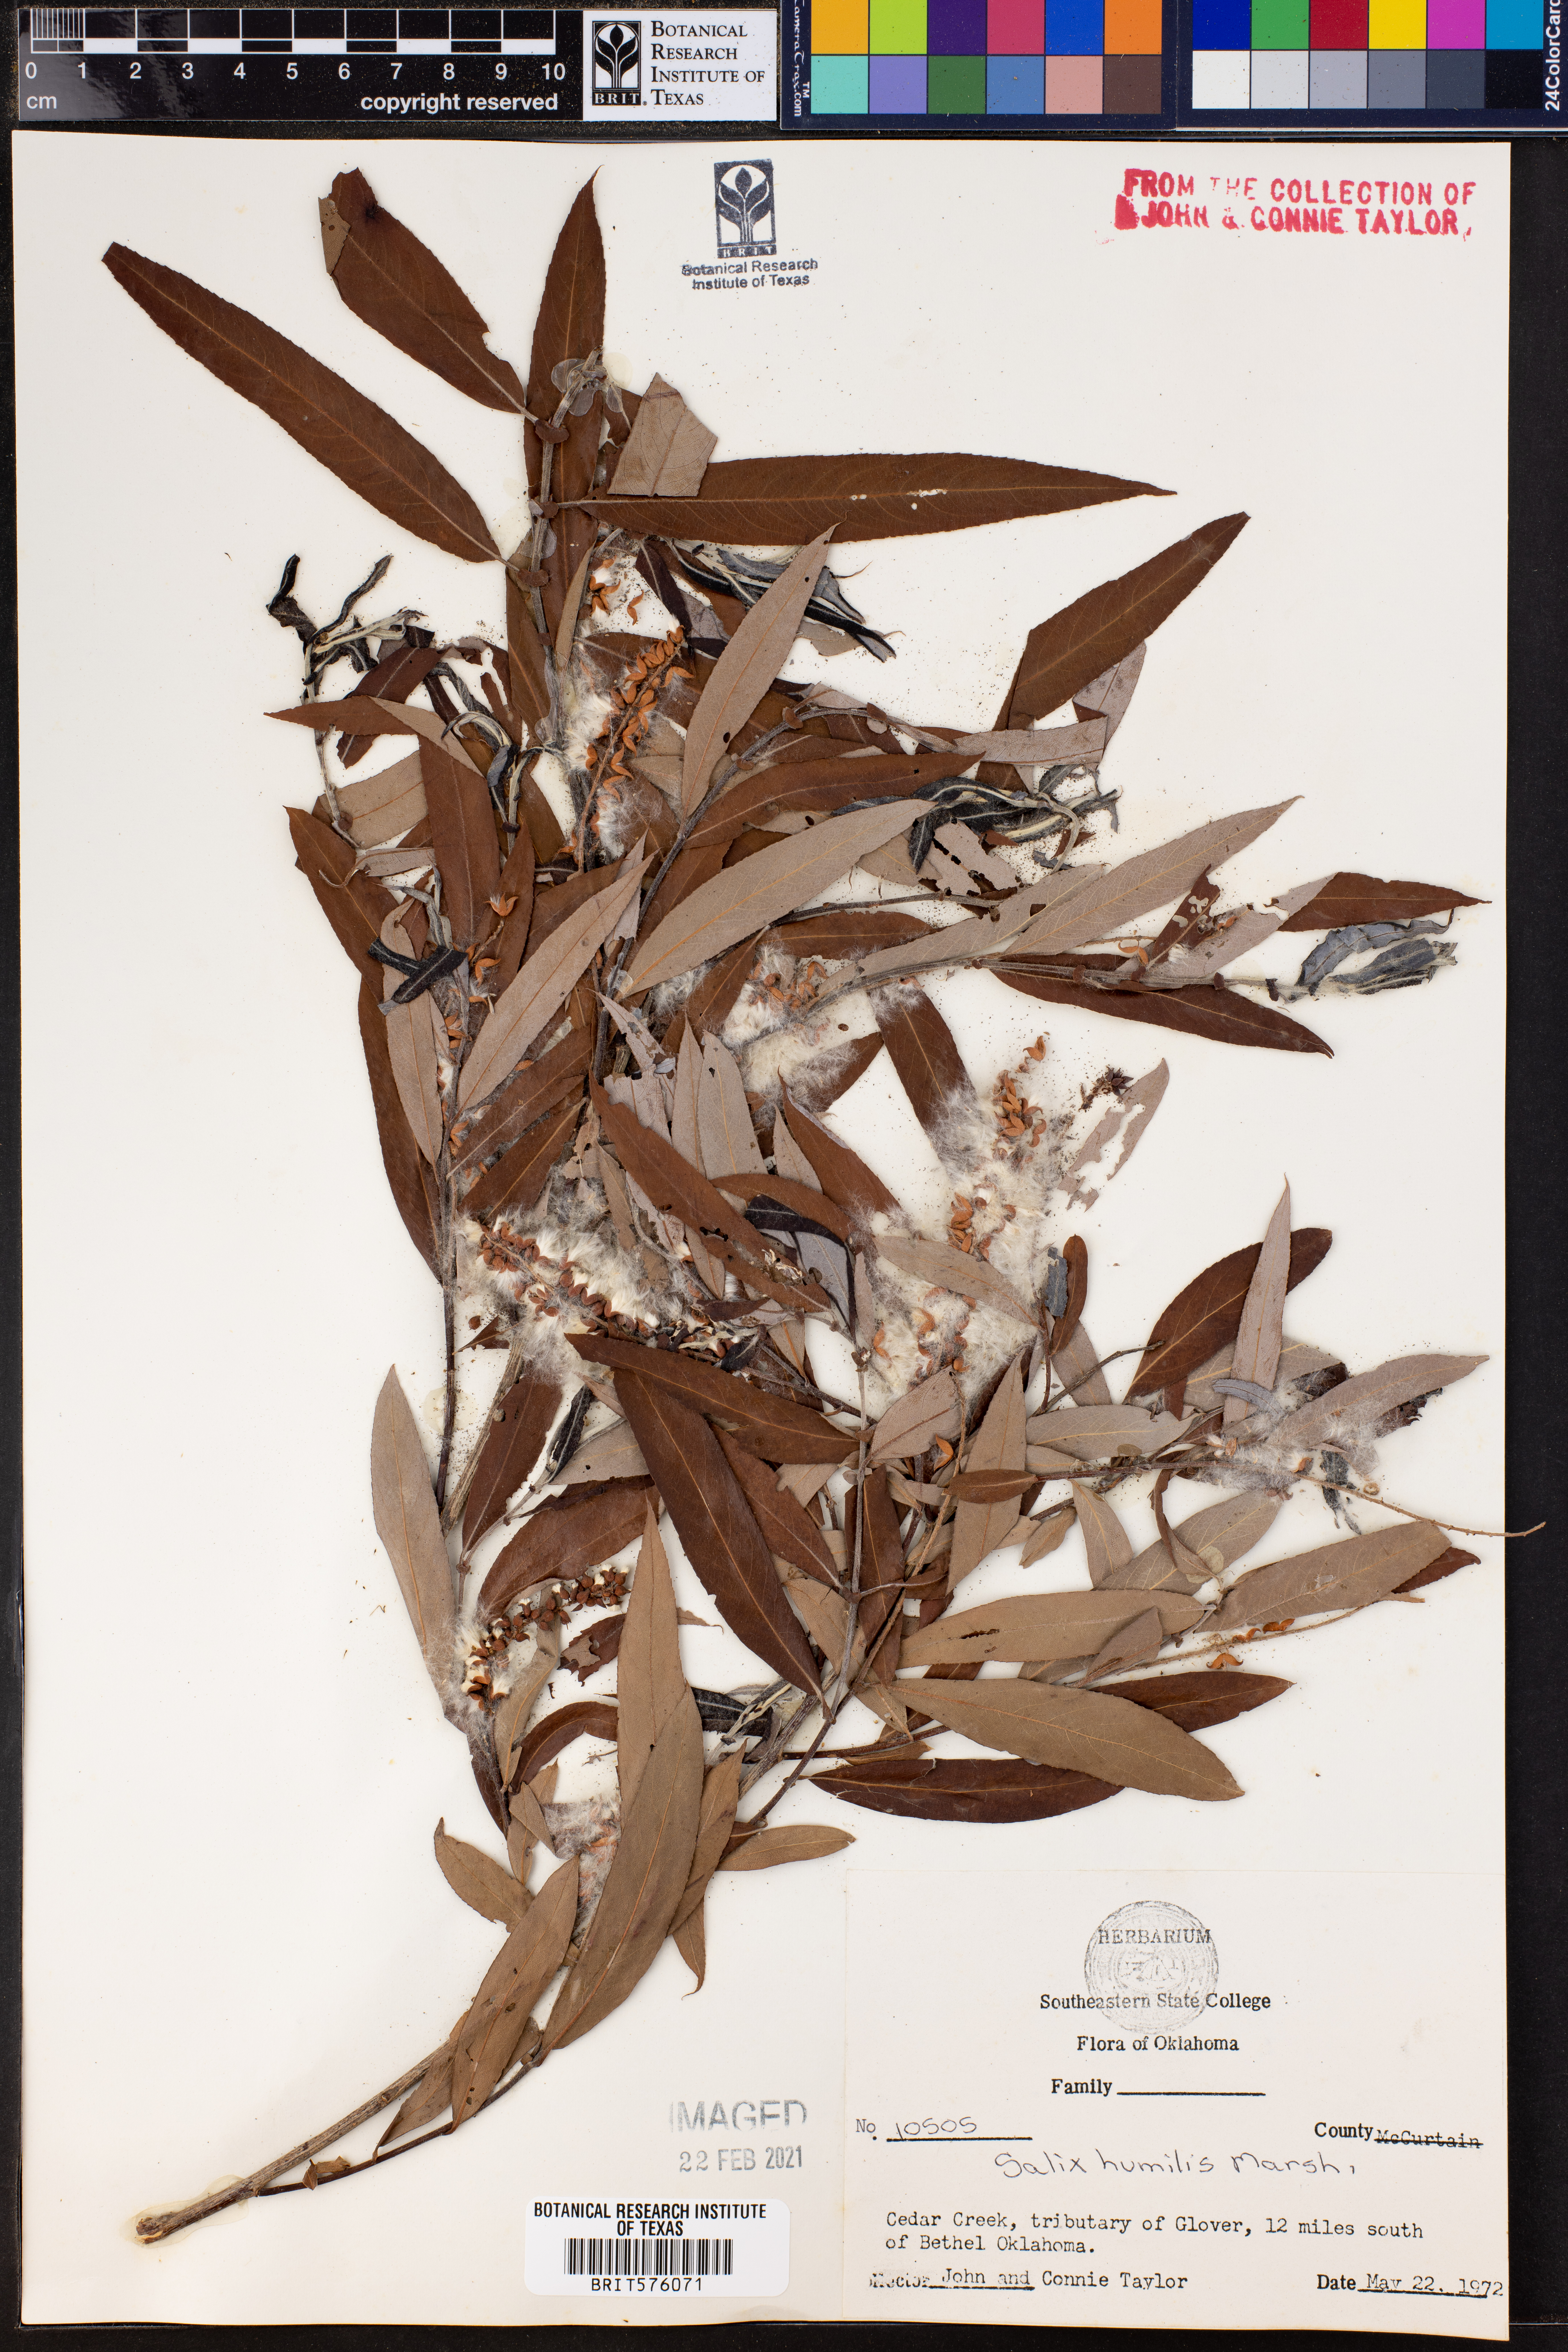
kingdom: Plantae
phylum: Tracheophyta
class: Magnoliopsida
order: Malpighiales
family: Salicaceae
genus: Salix
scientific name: Salix humilis
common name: Prairie willow
